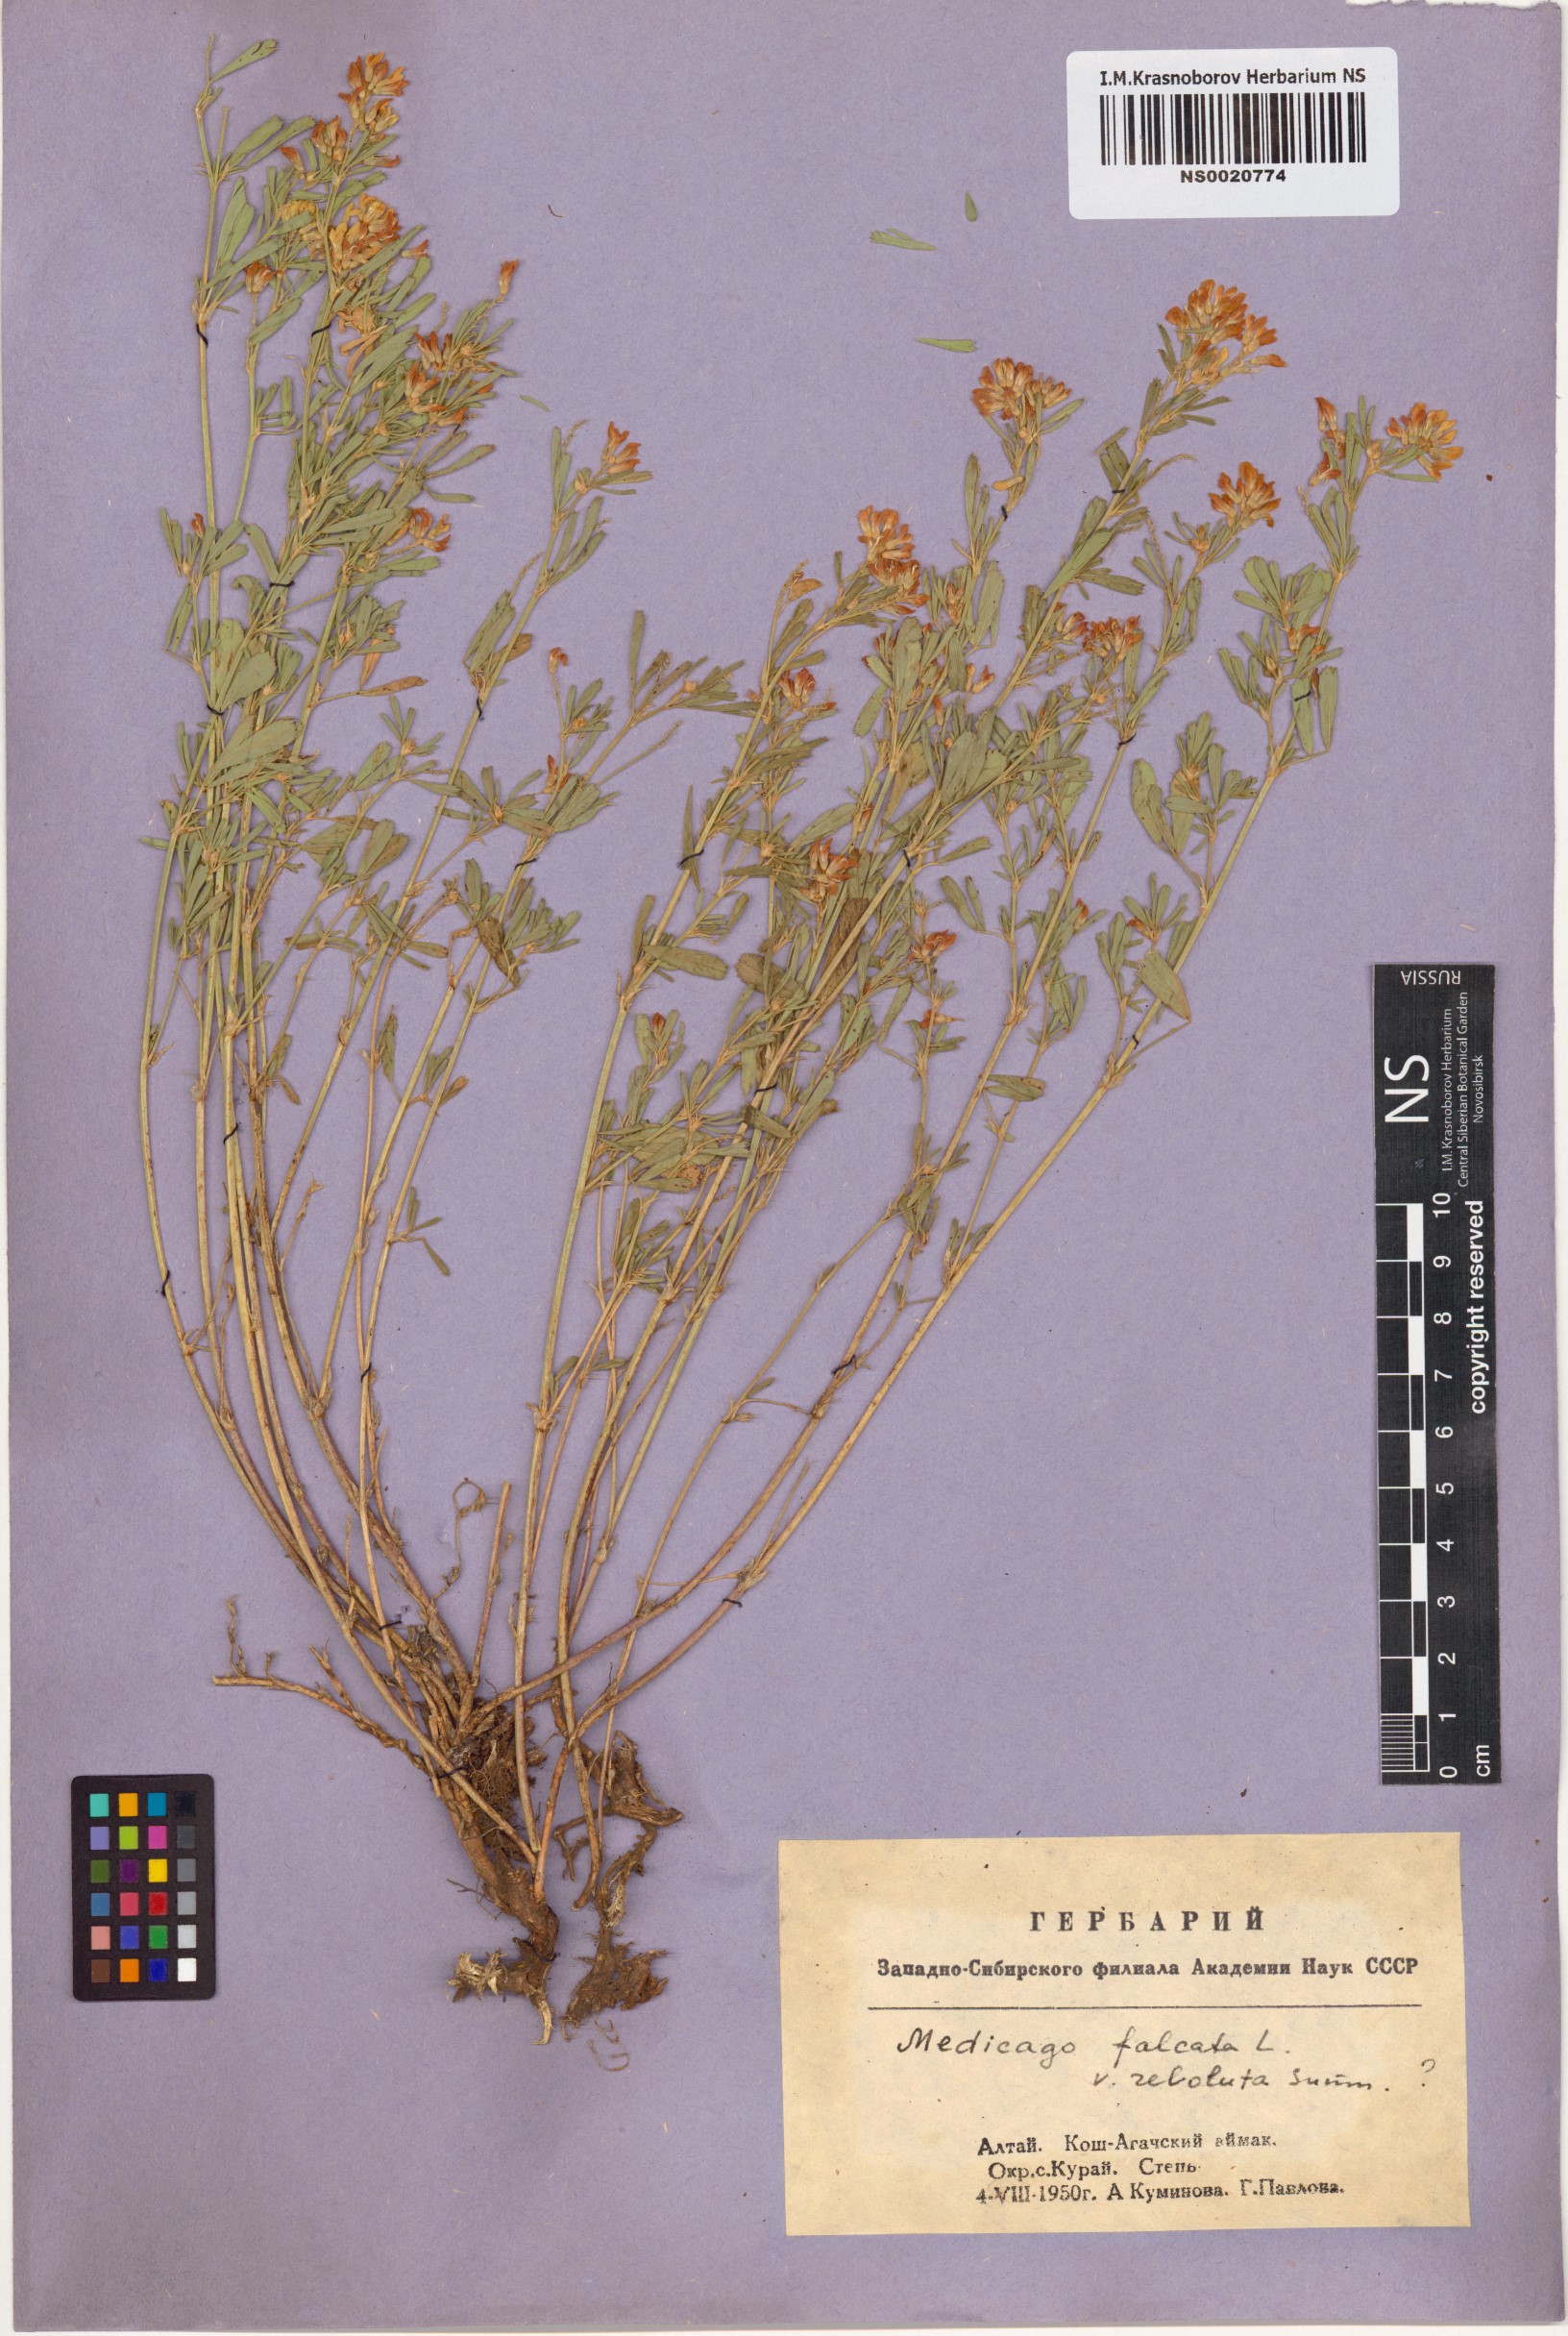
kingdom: Plantae
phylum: Tracheophyta
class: Magnoliopsida
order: Fabales
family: Fabaceae
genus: Medicago
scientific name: Medicago falcata
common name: Sickle medick
